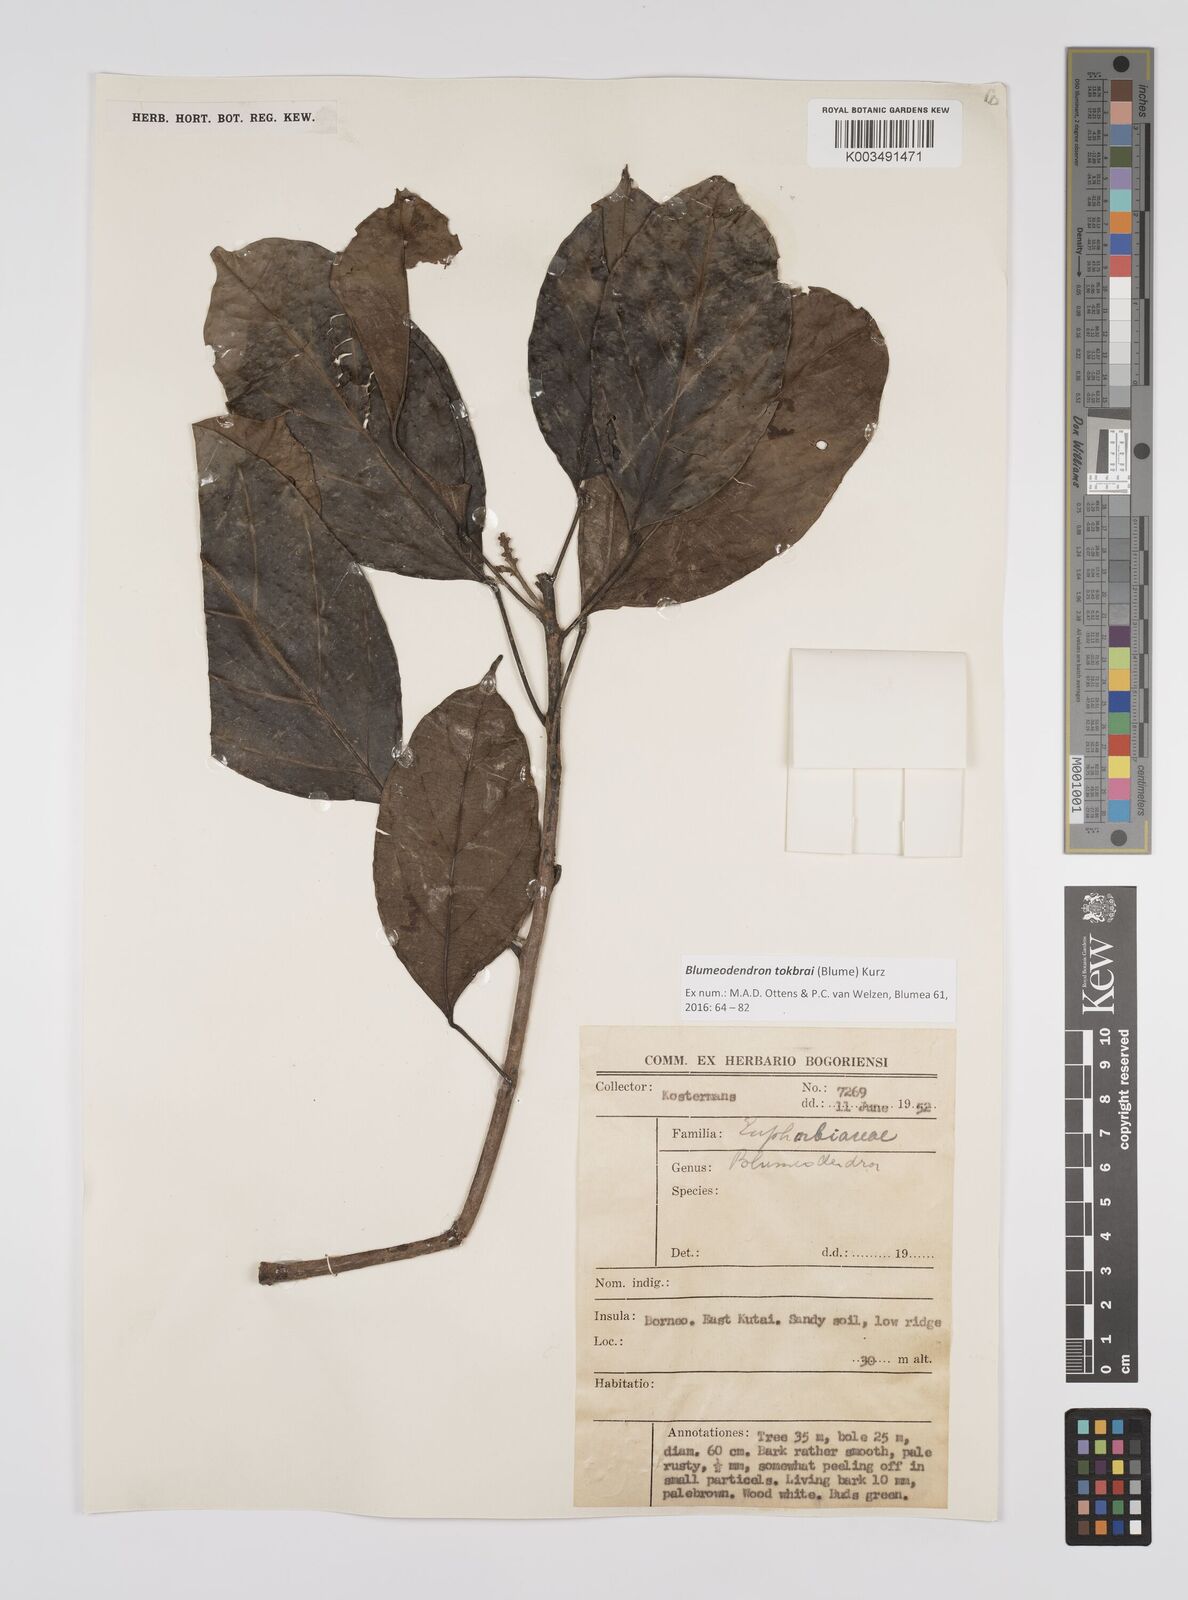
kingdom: Plantae
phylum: Tracheophyta
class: Magnoliopsida
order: Malpighiales
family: Euphorbiaceae
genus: Blumeodendron
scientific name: Blumeodendron tokbrai
